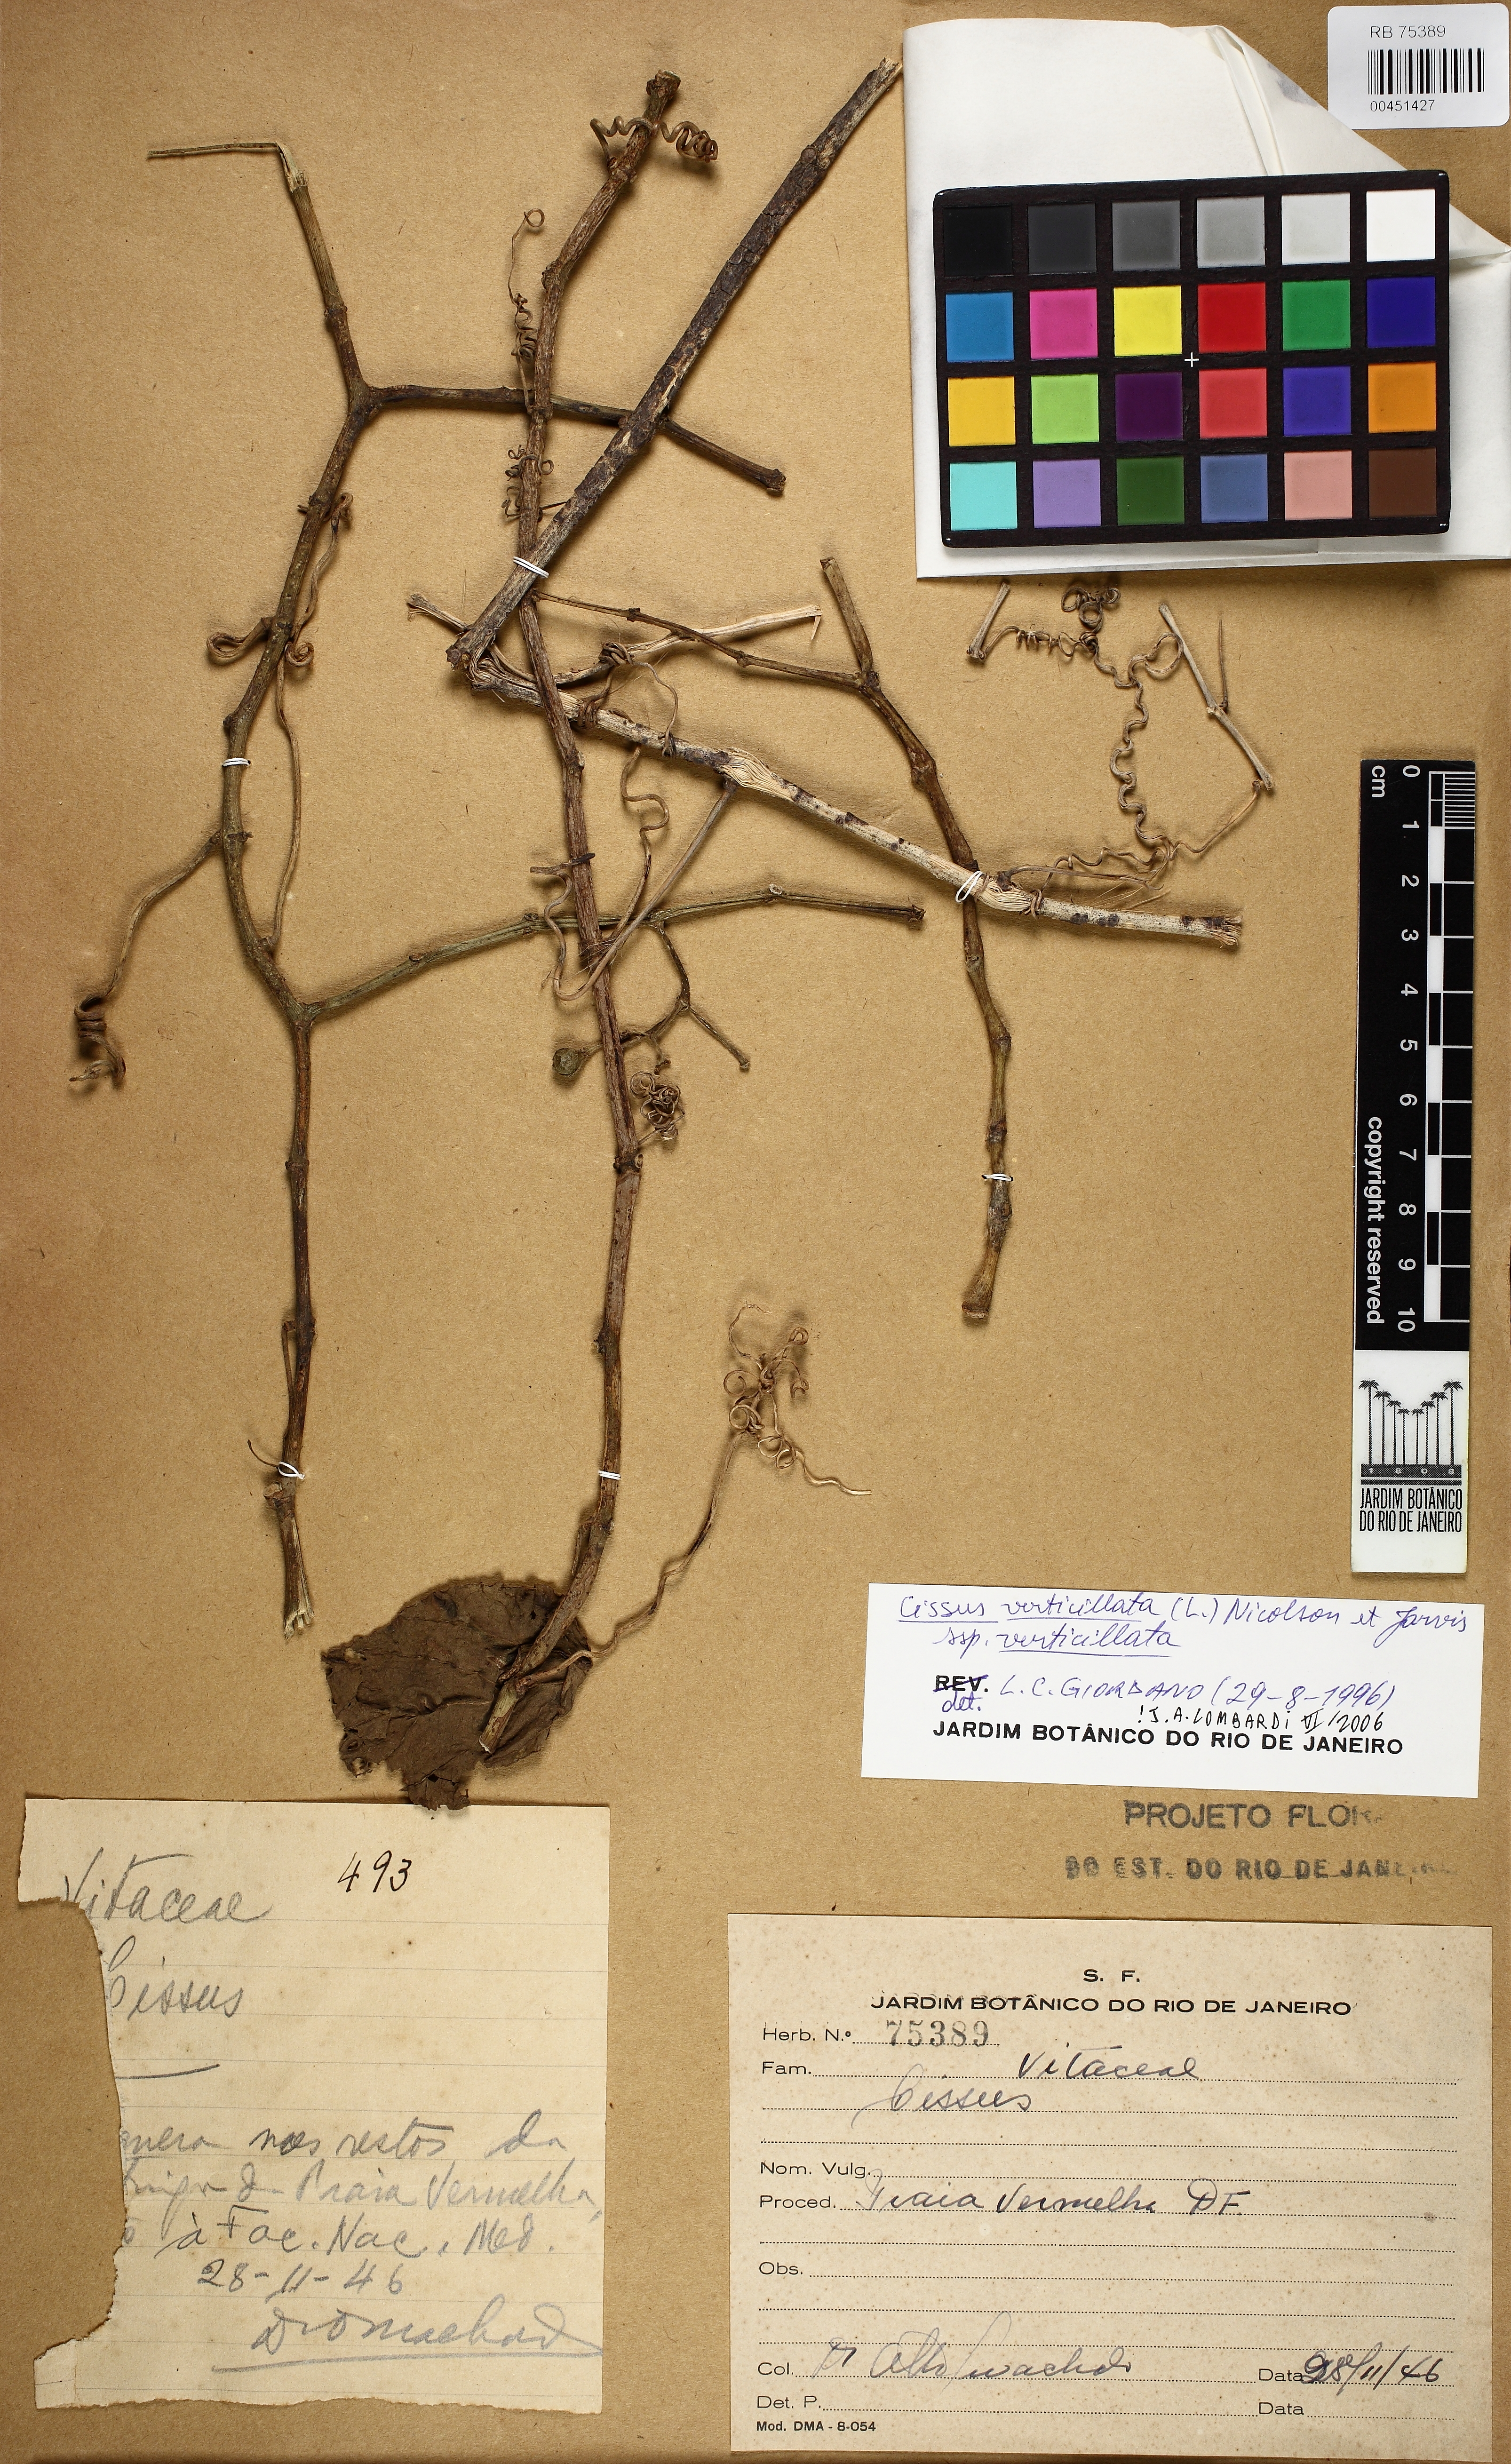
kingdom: Plantae
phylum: Tracheophyta
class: Magnoliopsida
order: Vitales
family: Vitaceae
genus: Cissus
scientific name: Cissus verticillata
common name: Princess vine
